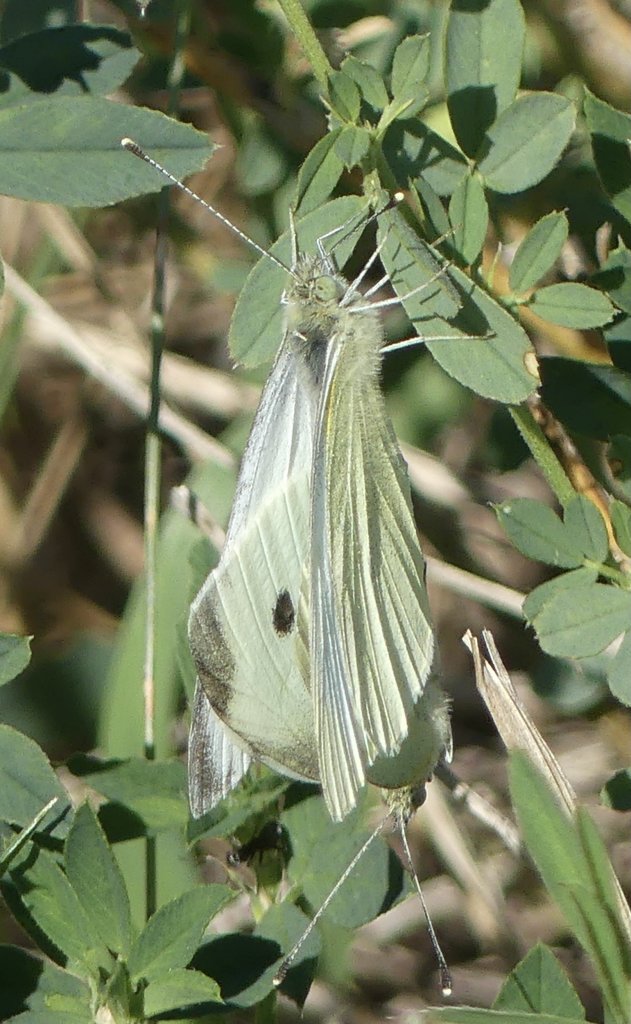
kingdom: Animalia
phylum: Arthropoda
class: Insecta
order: Lepidoptera
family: Pieridae
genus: Pieris
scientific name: Pieris rapae
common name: Cabbage White
